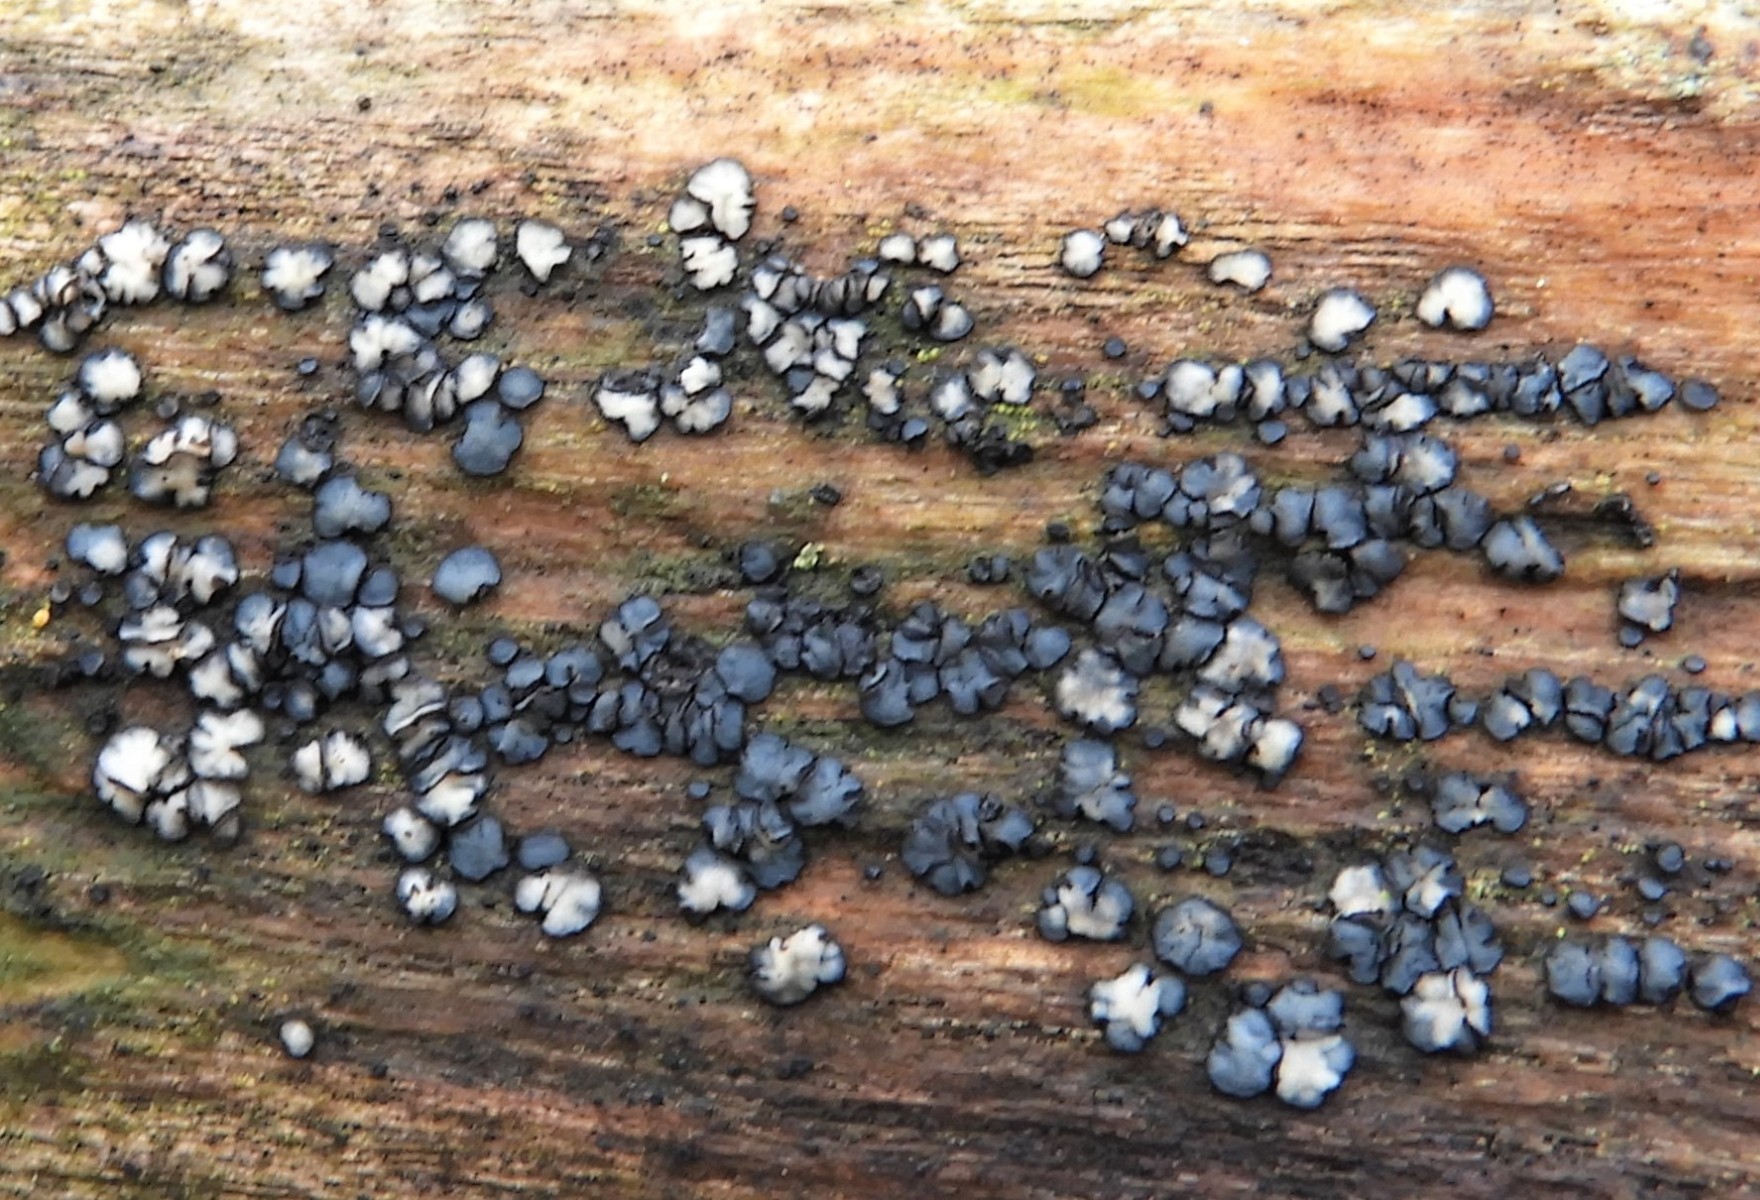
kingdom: Fungi
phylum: Ascomycota
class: Leotiomycetes
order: Helotiales
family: Mollisiaceae
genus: Mollisia
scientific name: Mollisia
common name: gråskive
